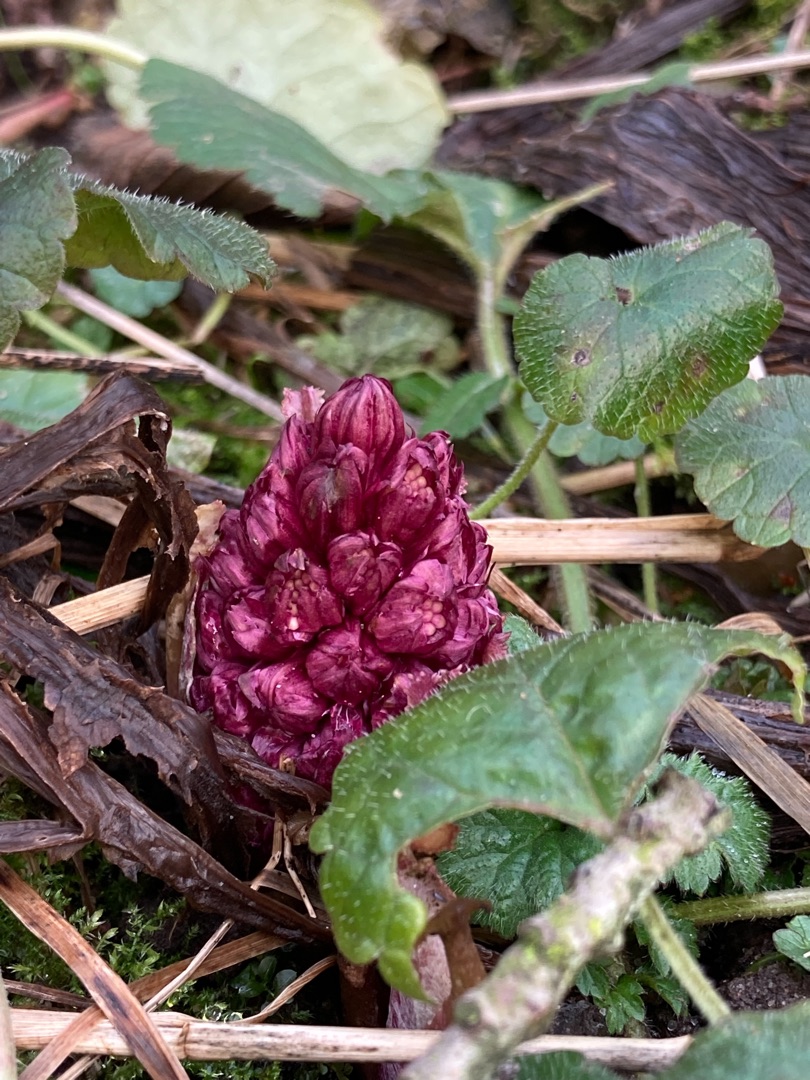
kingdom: Plantae
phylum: Tracheophyta
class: Magnoliopsida
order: Asterales
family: Asteraceae
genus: Petasites
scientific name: Petasites hybridus
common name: Rød hestehov
